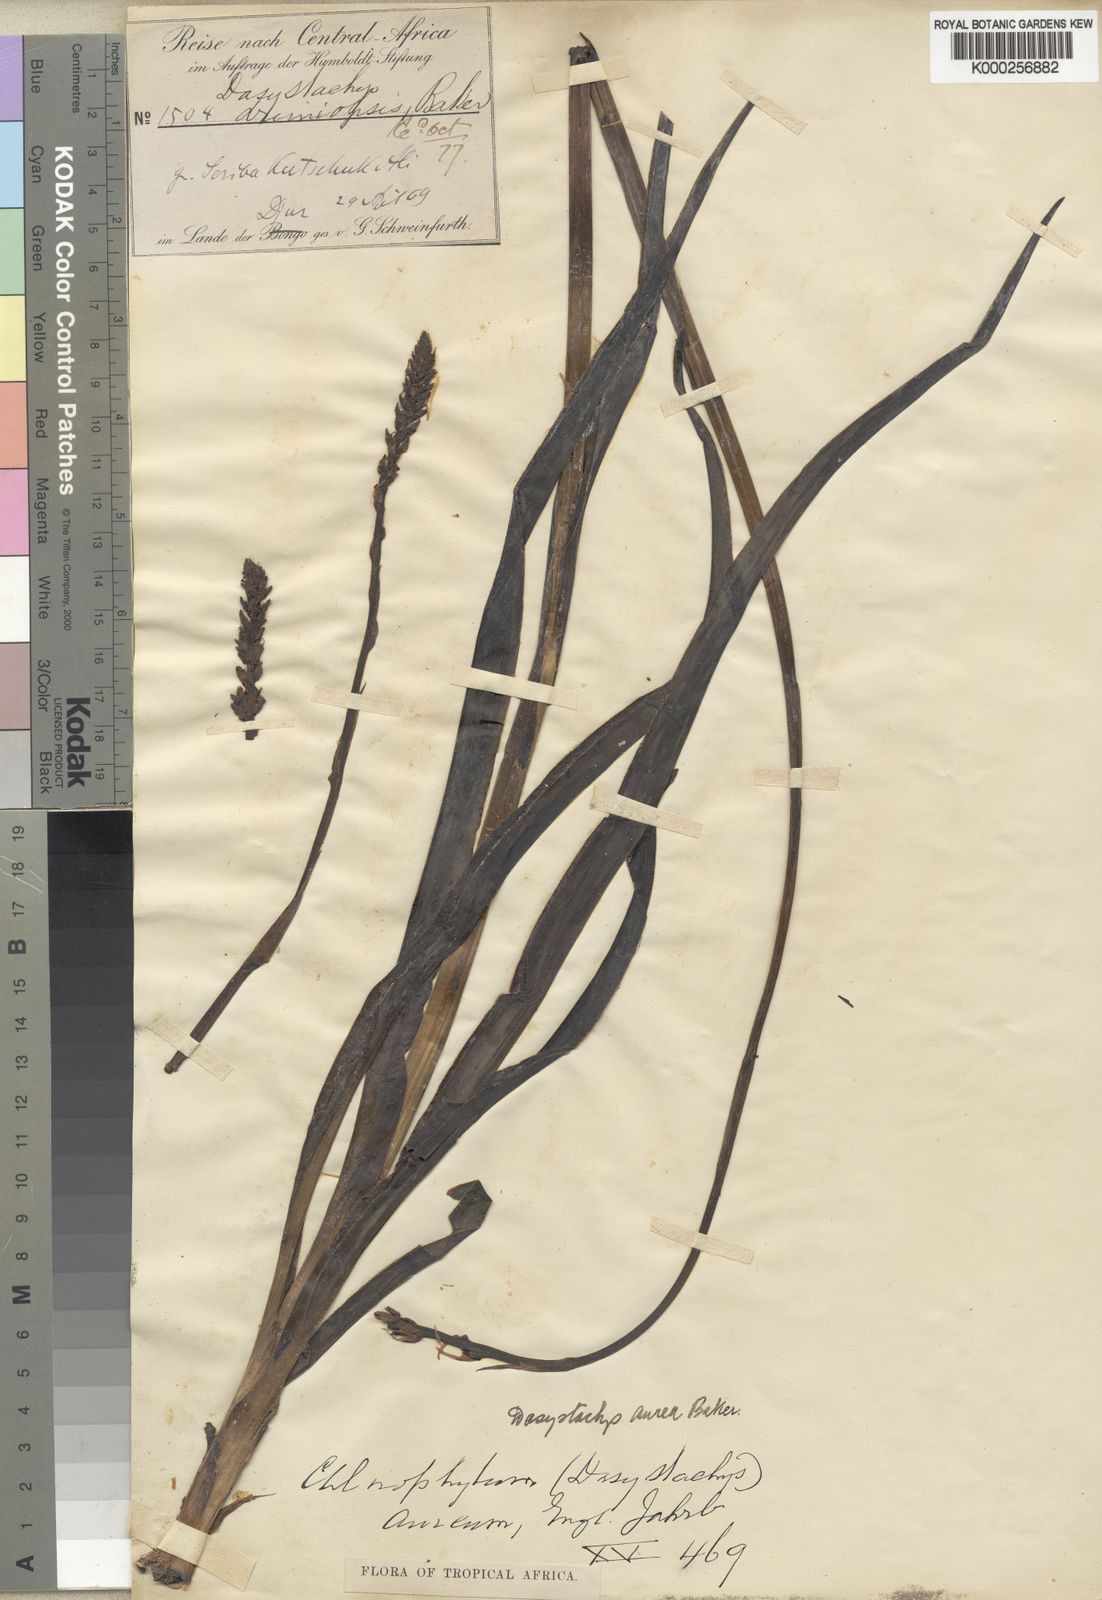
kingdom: Plantae
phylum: Tracheophyta
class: Liliopsida
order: Asparagales
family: Asparagaceae
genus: Chlorophytum
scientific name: Chlorophytum longifolium
